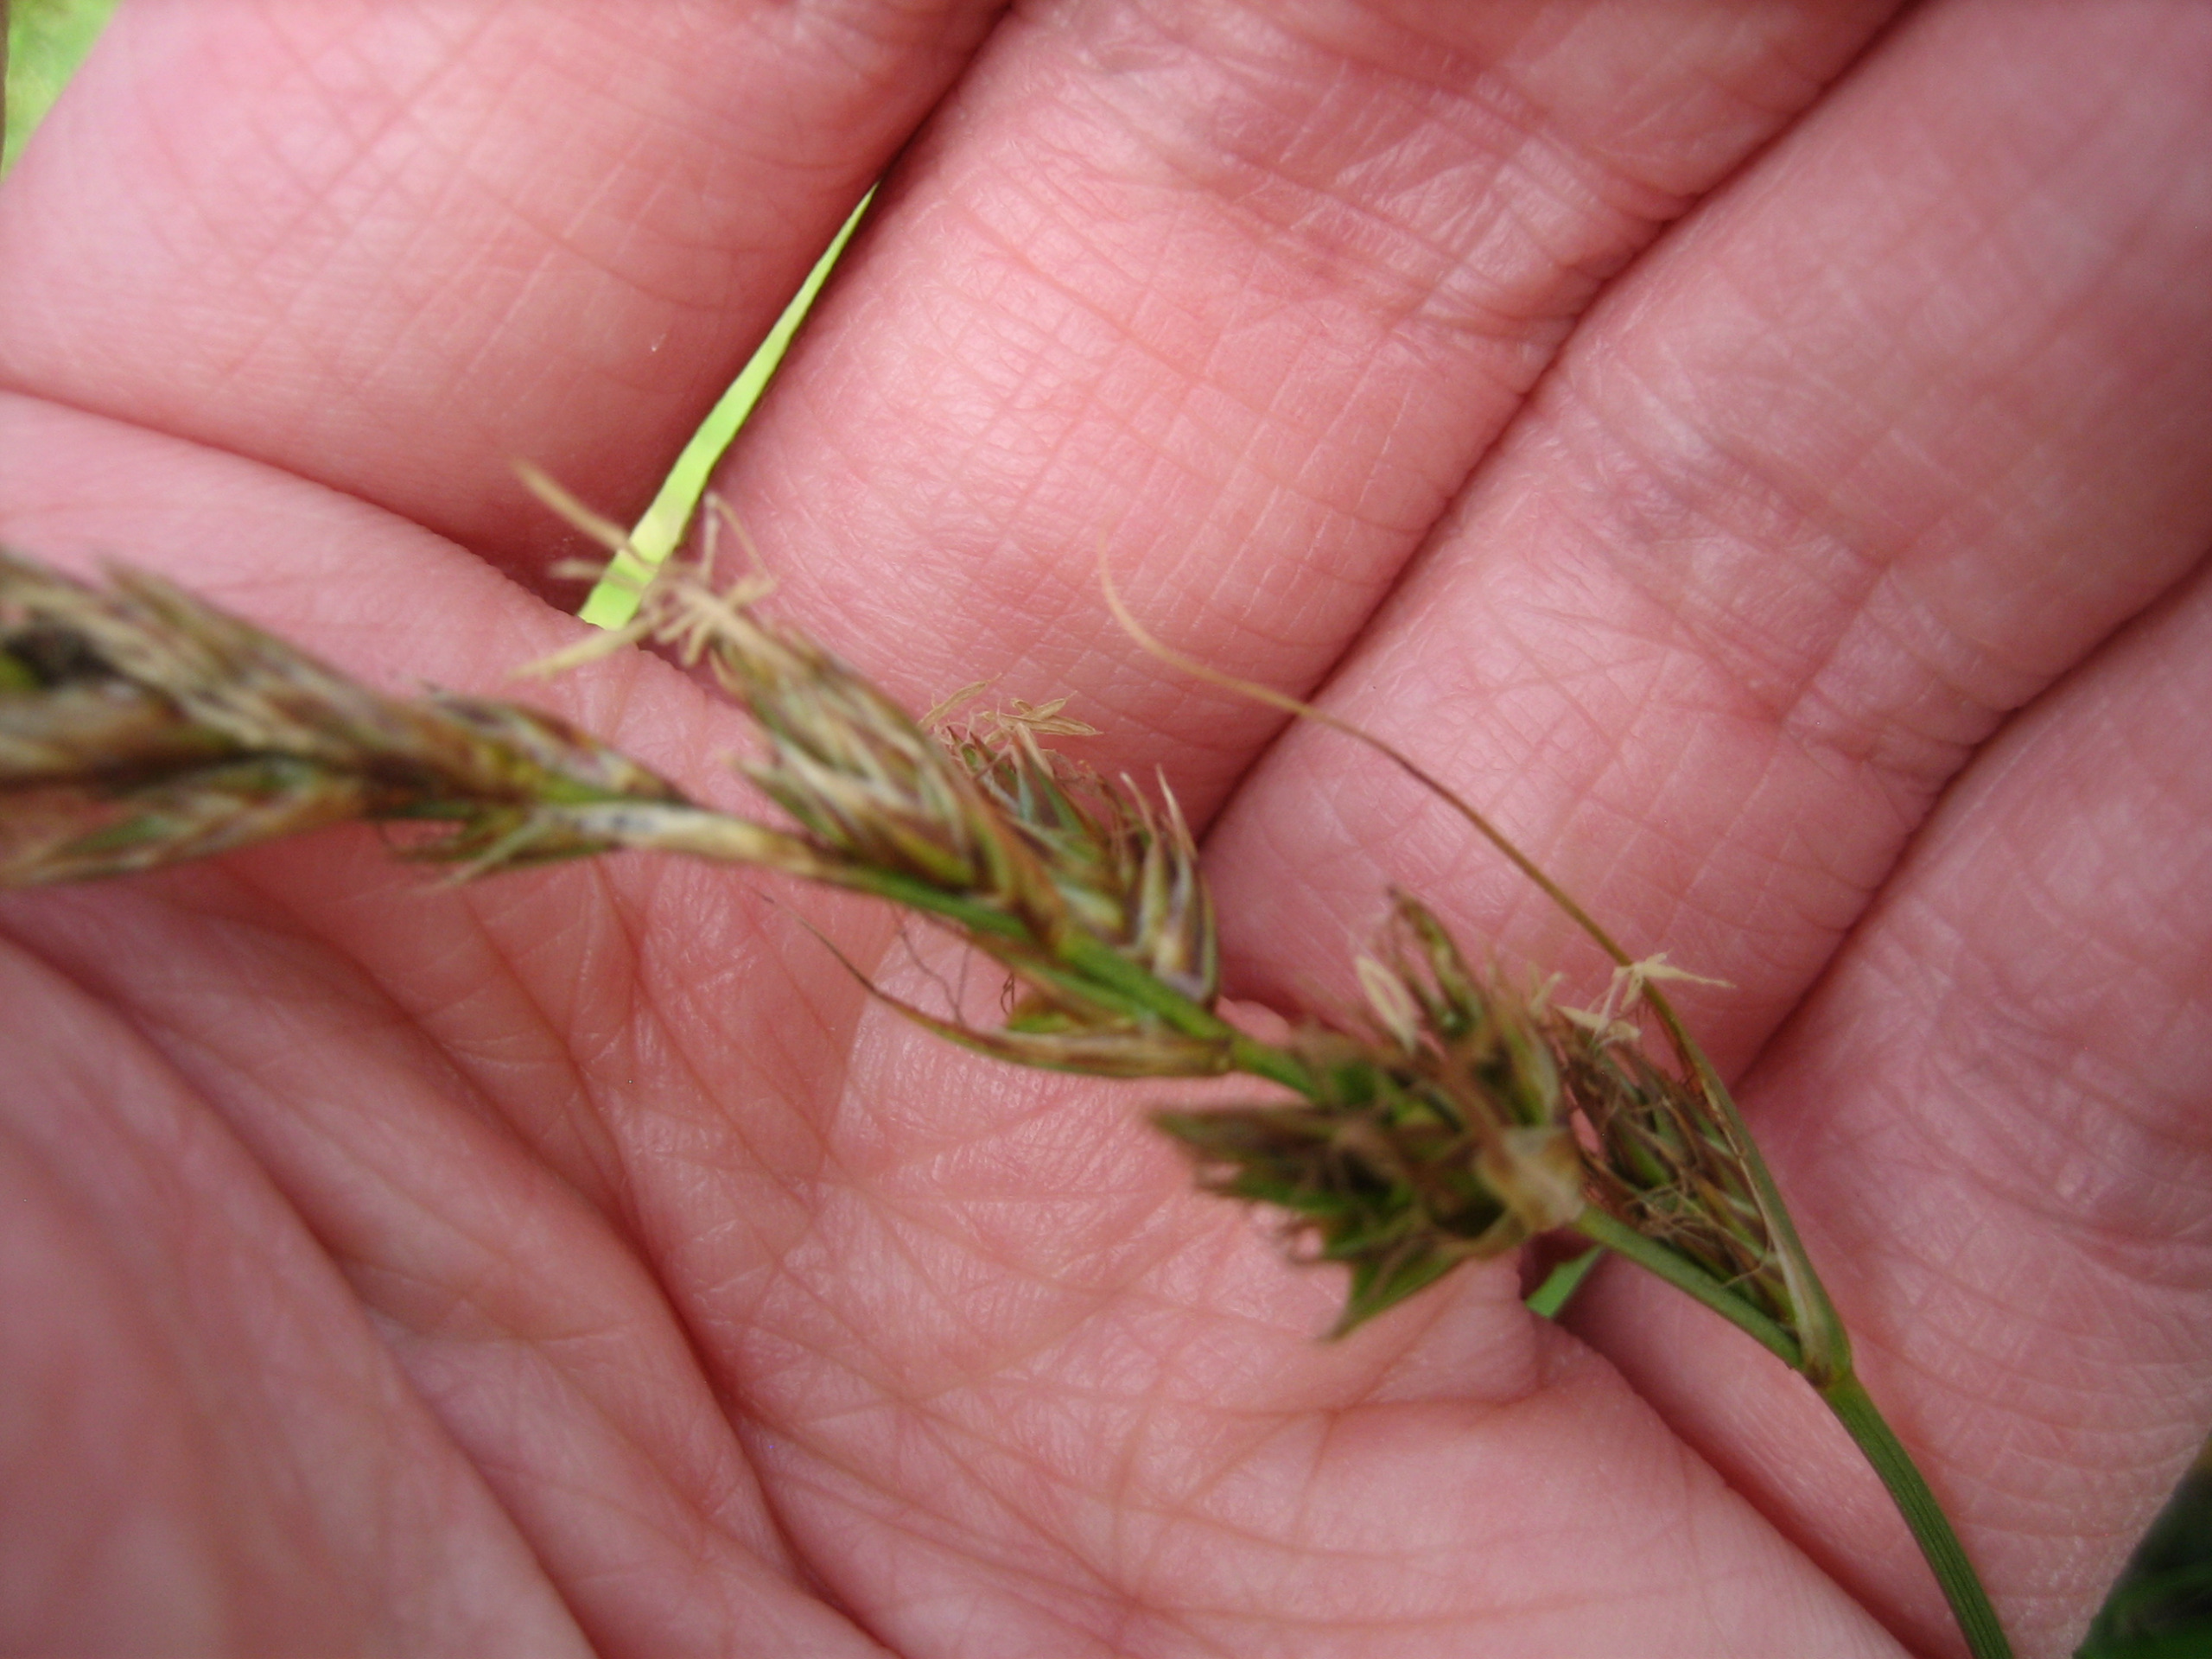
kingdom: Plantae
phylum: Tracheophyta
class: Liliopsida
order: Poales
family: Cyperaceae
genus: Carex
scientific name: Carex arenaria
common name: Sand-star
